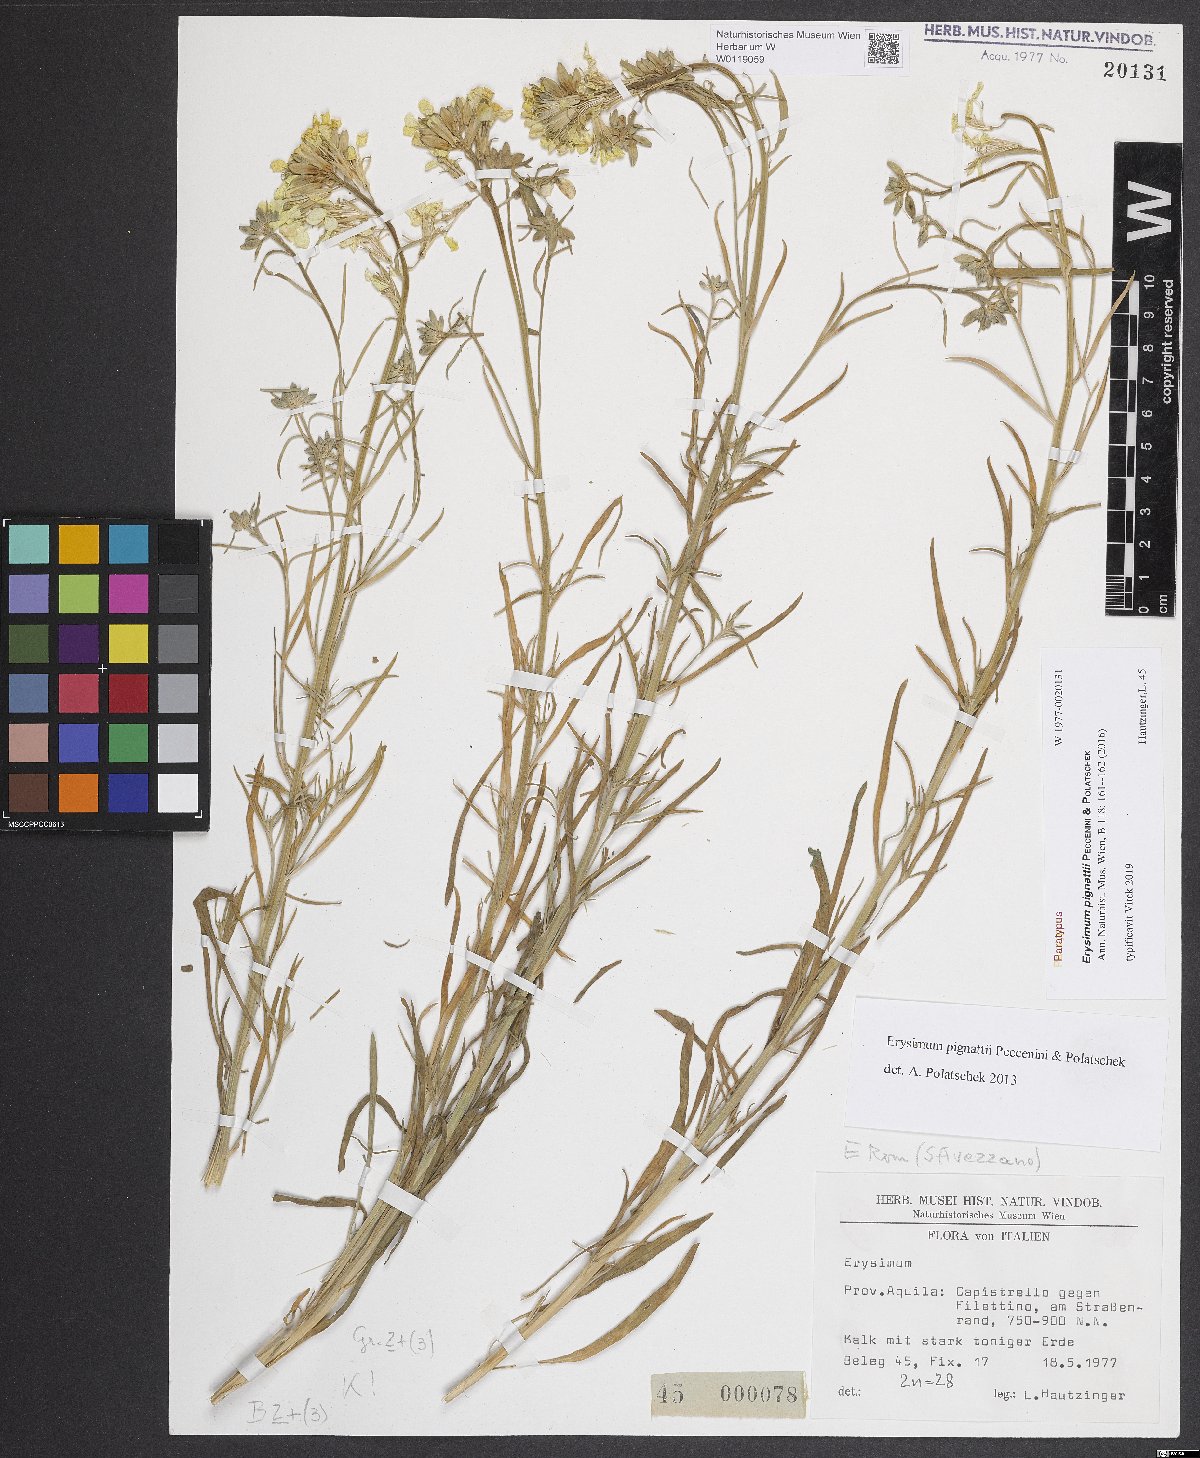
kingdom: Plantae
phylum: Tracheophyta
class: Magnoliopsida
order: Brassicales
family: Brassicaceae
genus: Erysimum
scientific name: Erysimum pignattii
